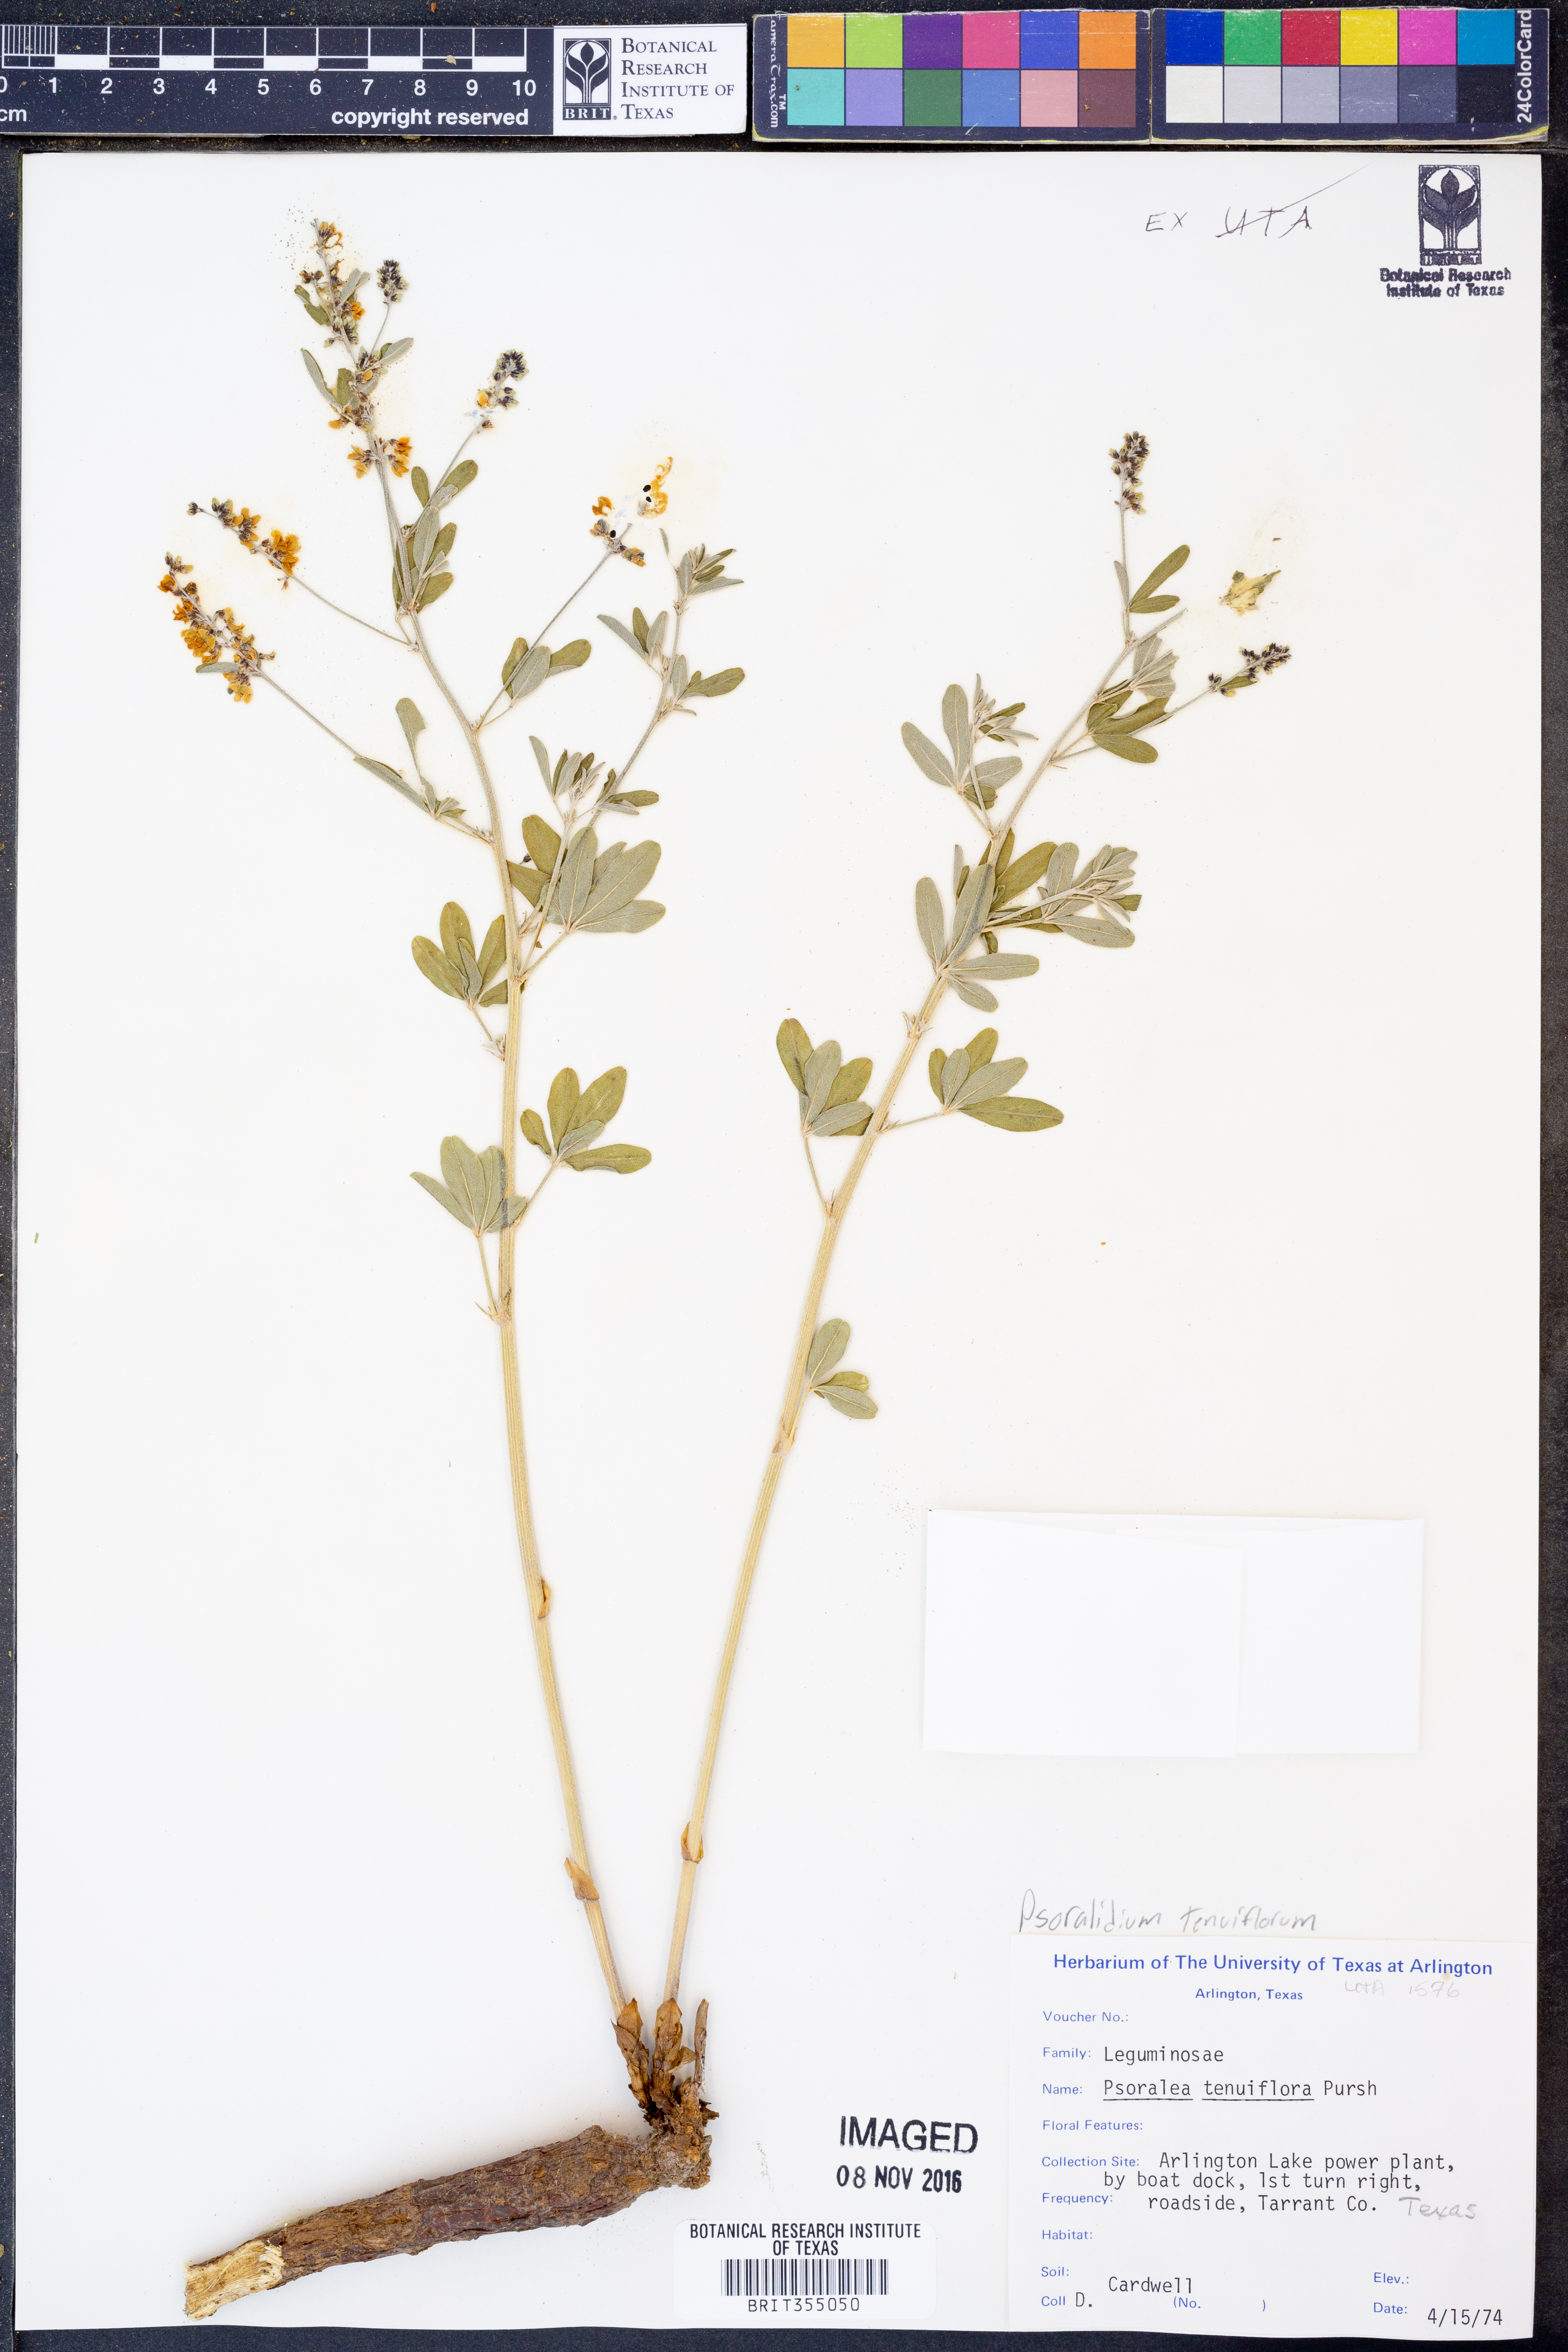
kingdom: Plantae
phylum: Tracheophyta
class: Magnoliopsida
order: Fabales
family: Fabaceae
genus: Pediomelum
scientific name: Pediomelum tenuiflorum
